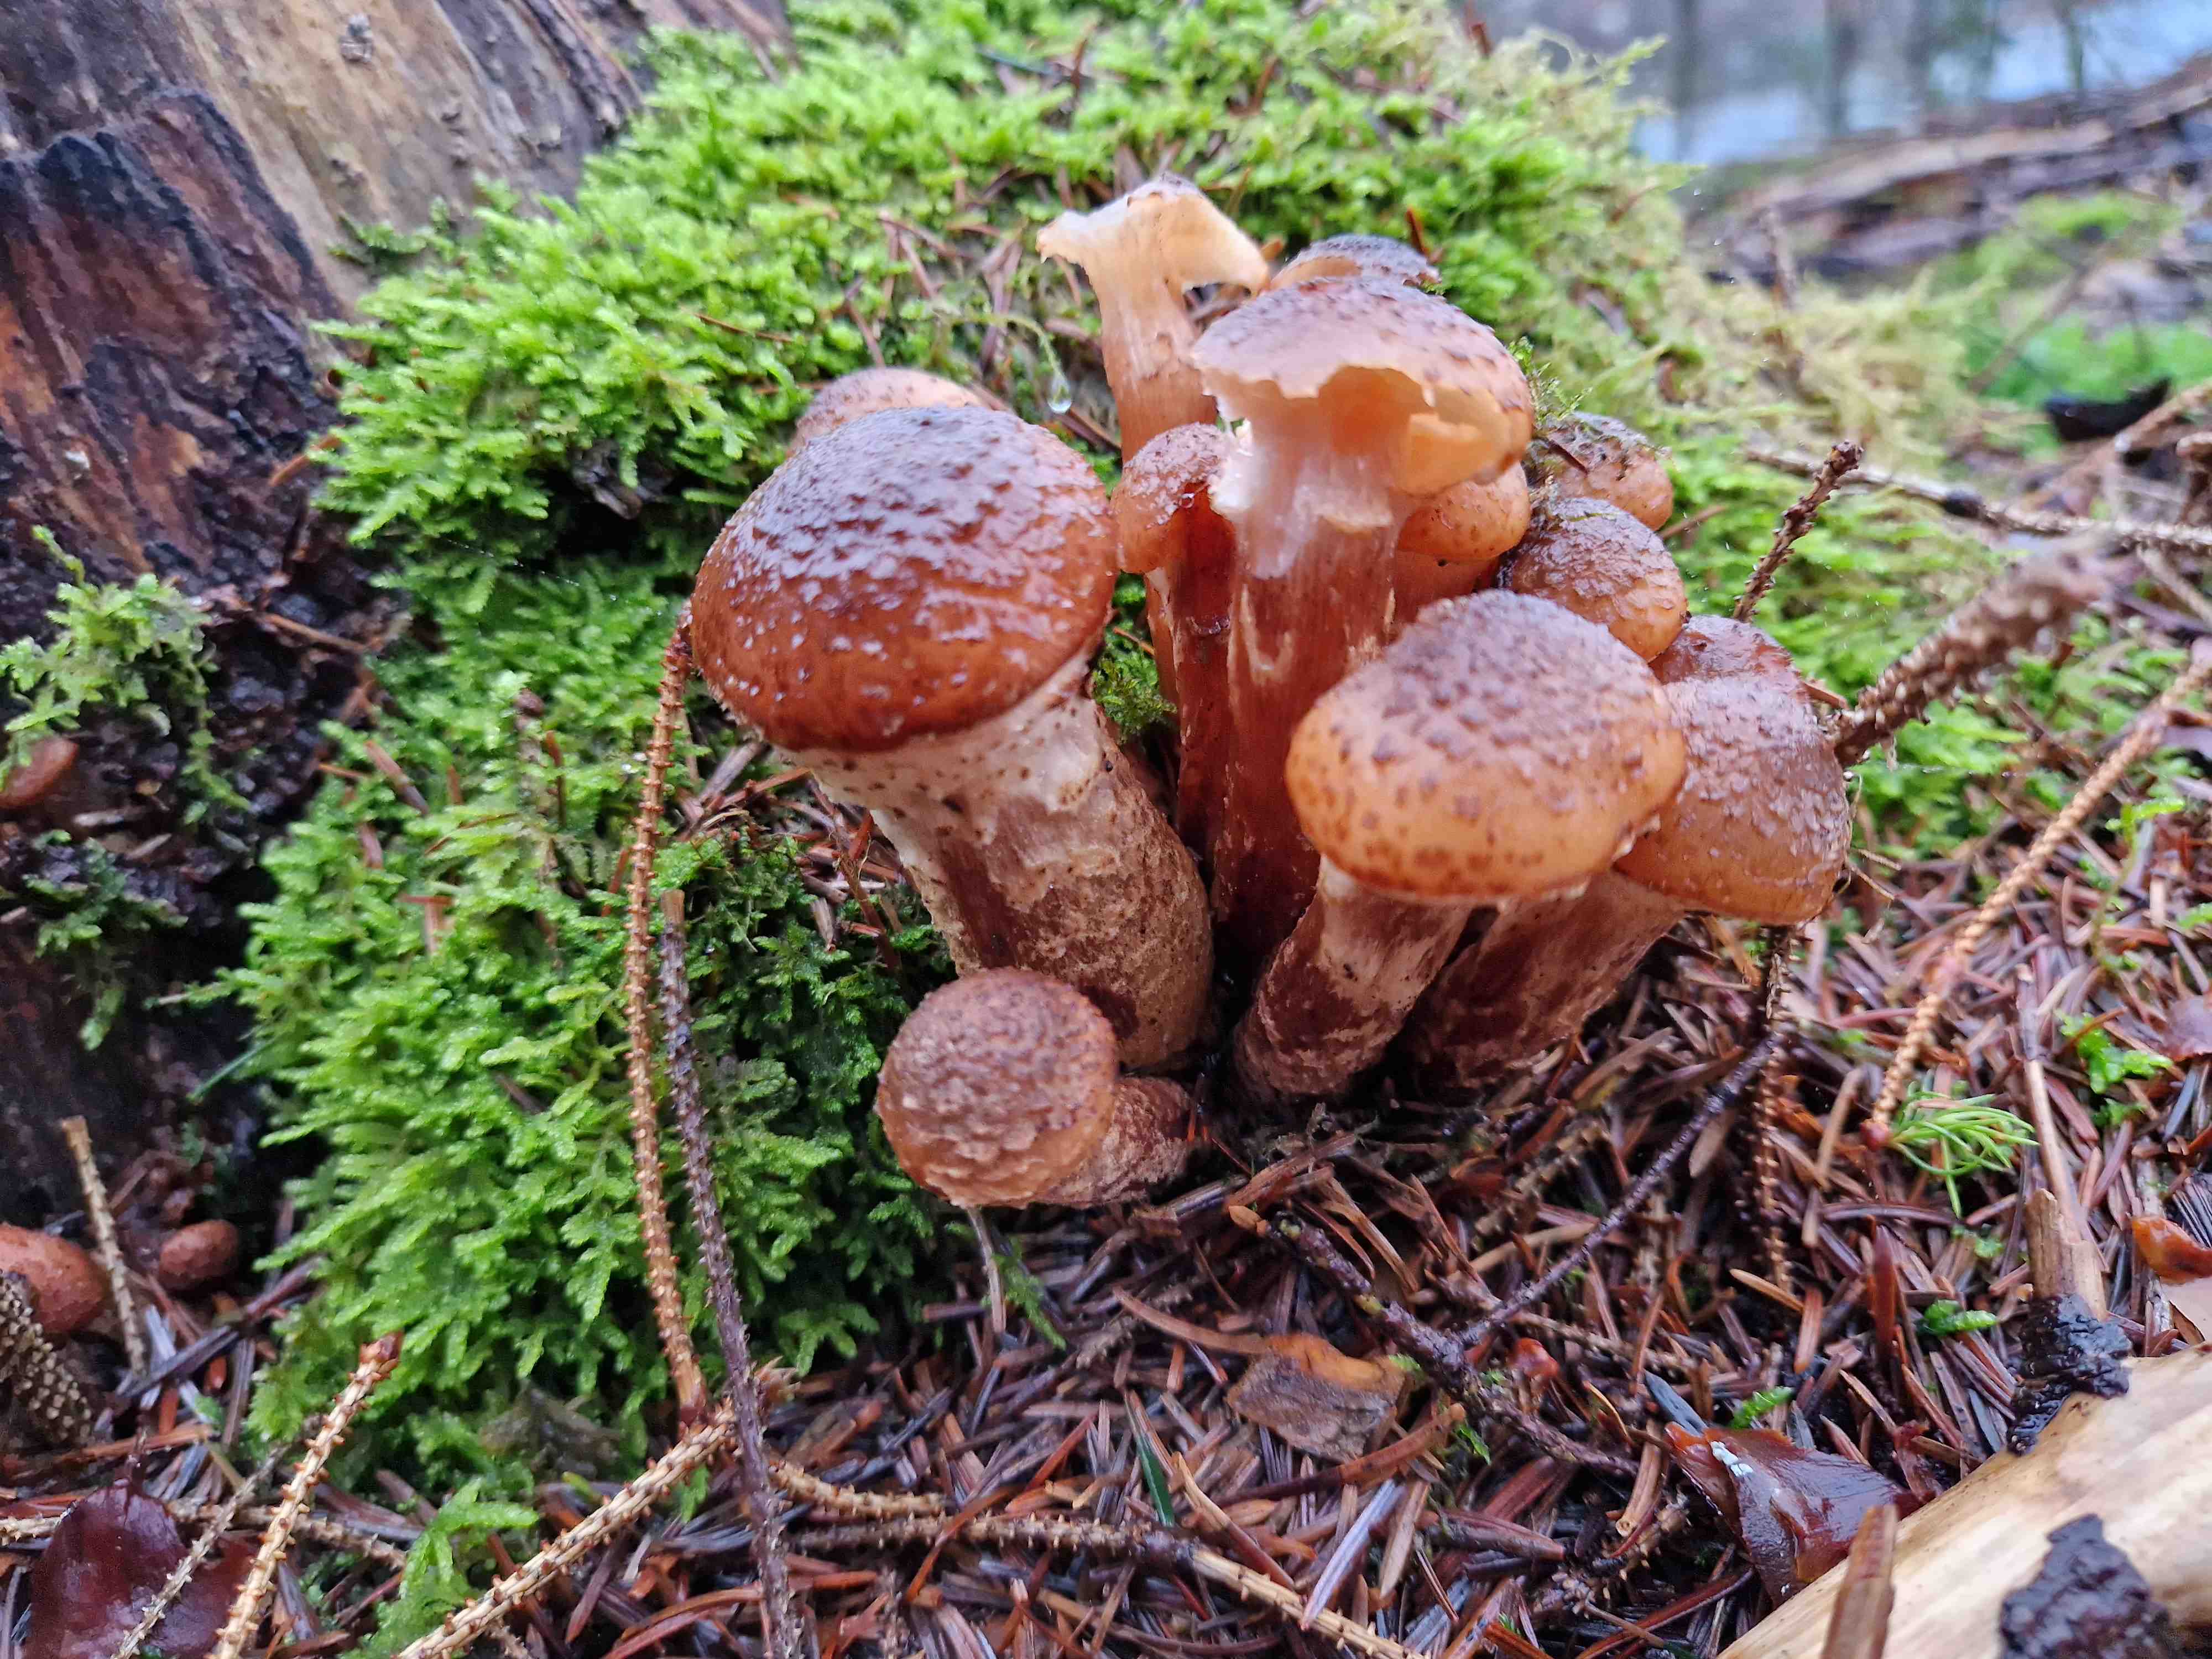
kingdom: Fungi
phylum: Basidiomycota
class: Agaricomycetes
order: Agaricales
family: Physalacriaceae
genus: Armillaria
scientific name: Armillaria ostoyae
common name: mørk honningsvamp
